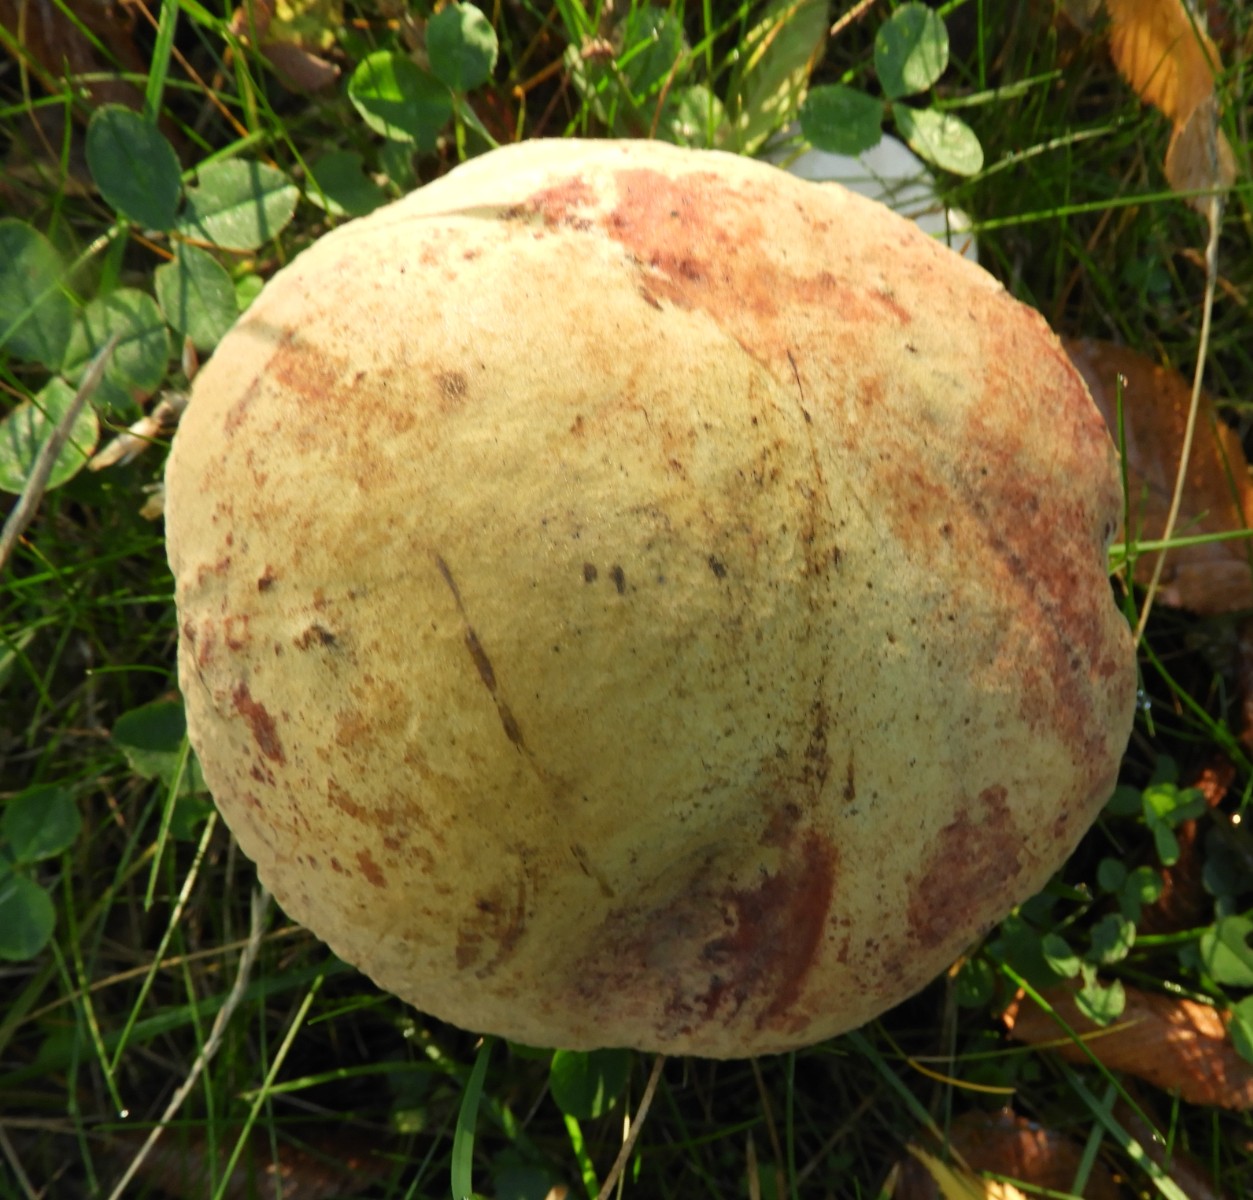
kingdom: Fungi
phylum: Basidiomycota
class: Agaricomycetes
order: Boletales
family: Boletaceae
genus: Suillellus
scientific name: Suillellus luridus
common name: netstokket indigorørhat
